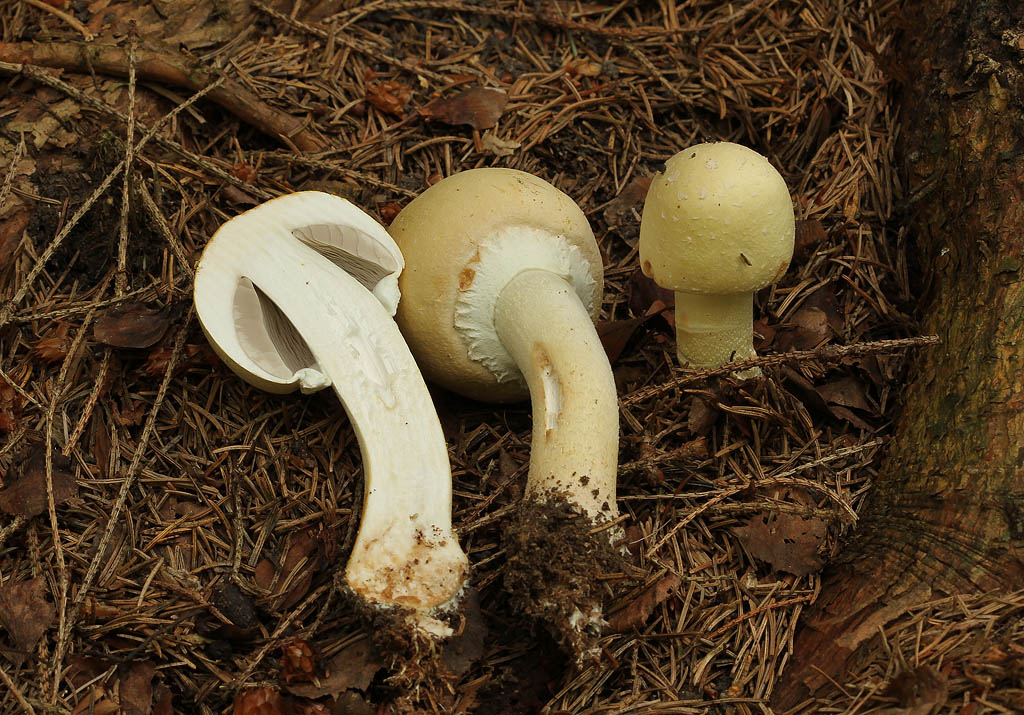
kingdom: Fungi
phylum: Basidiomycota
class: Agaricomycetes
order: Agaricales
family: Agaricaceae
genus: Agaricus
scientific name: Agaricus sylvicola
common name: skiveknoldet champignon
